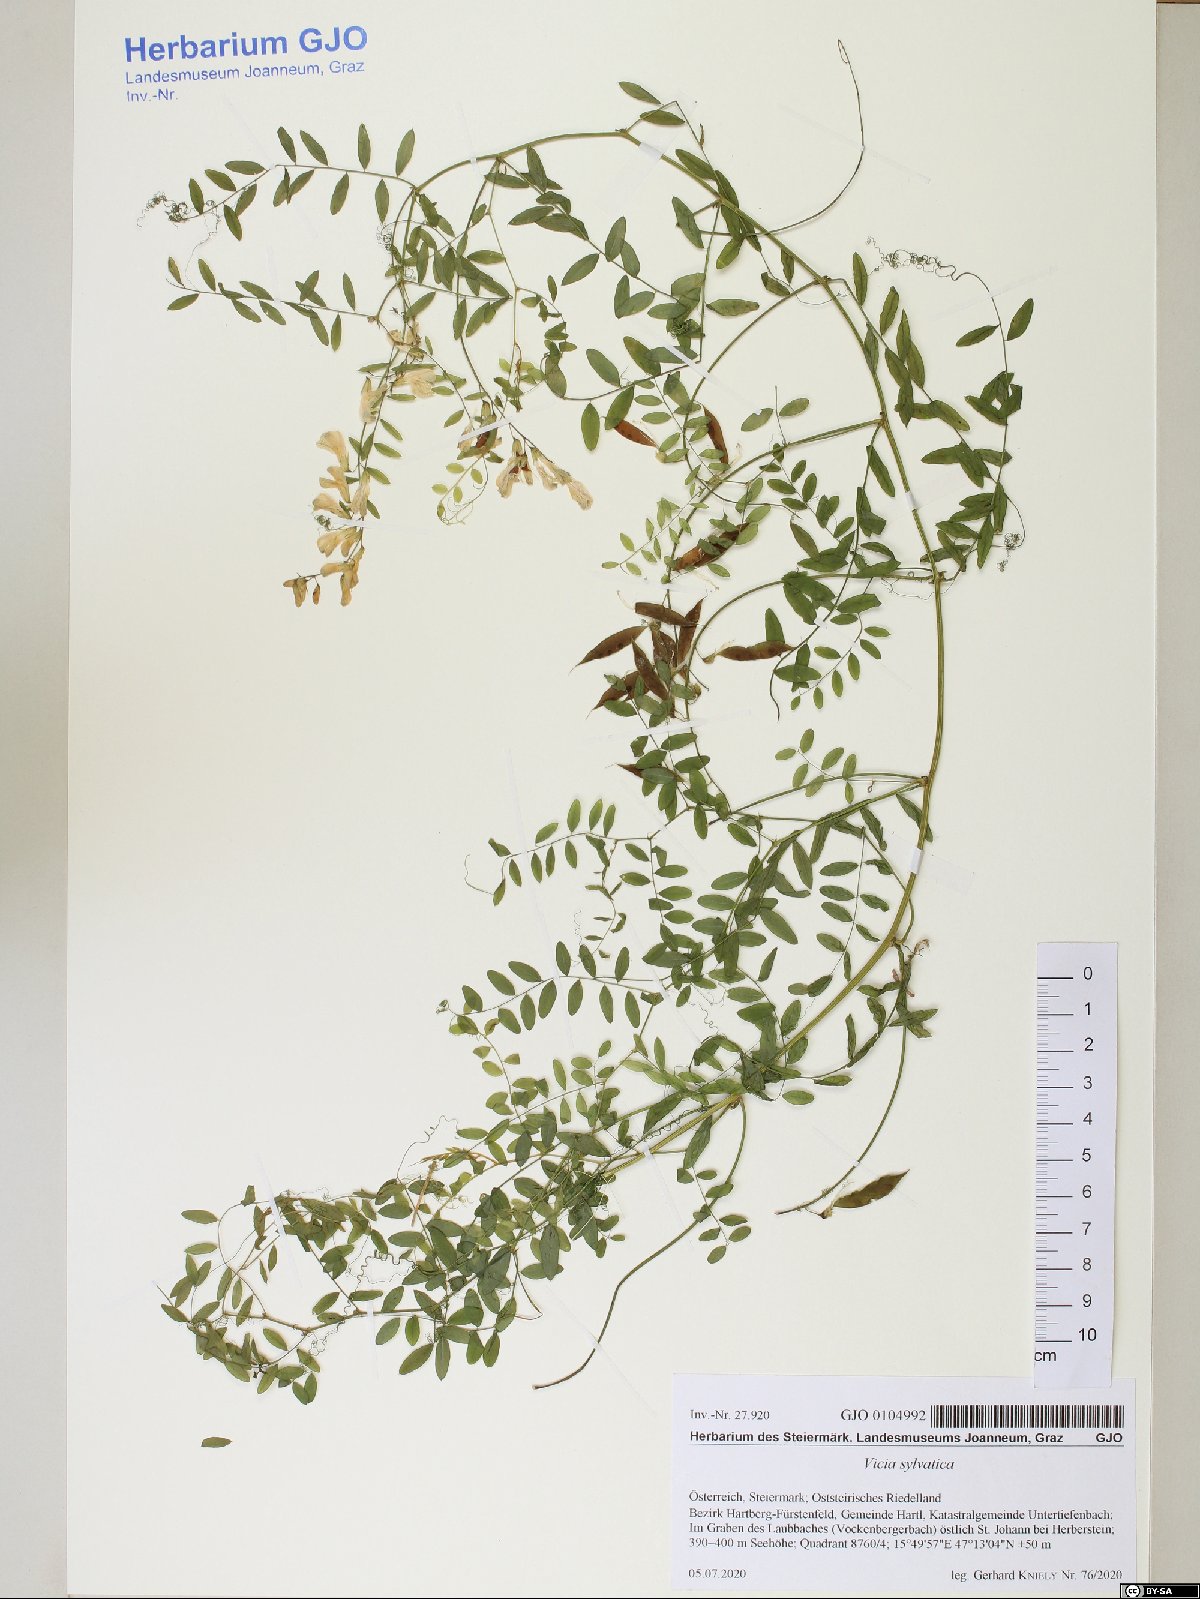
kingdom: Plantae
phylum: Tracheophyta
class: Magnoliopsida
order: Fabales
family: Fabaceae
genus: Vicia
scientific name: Vicia sylvatica
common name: Wood vetch
